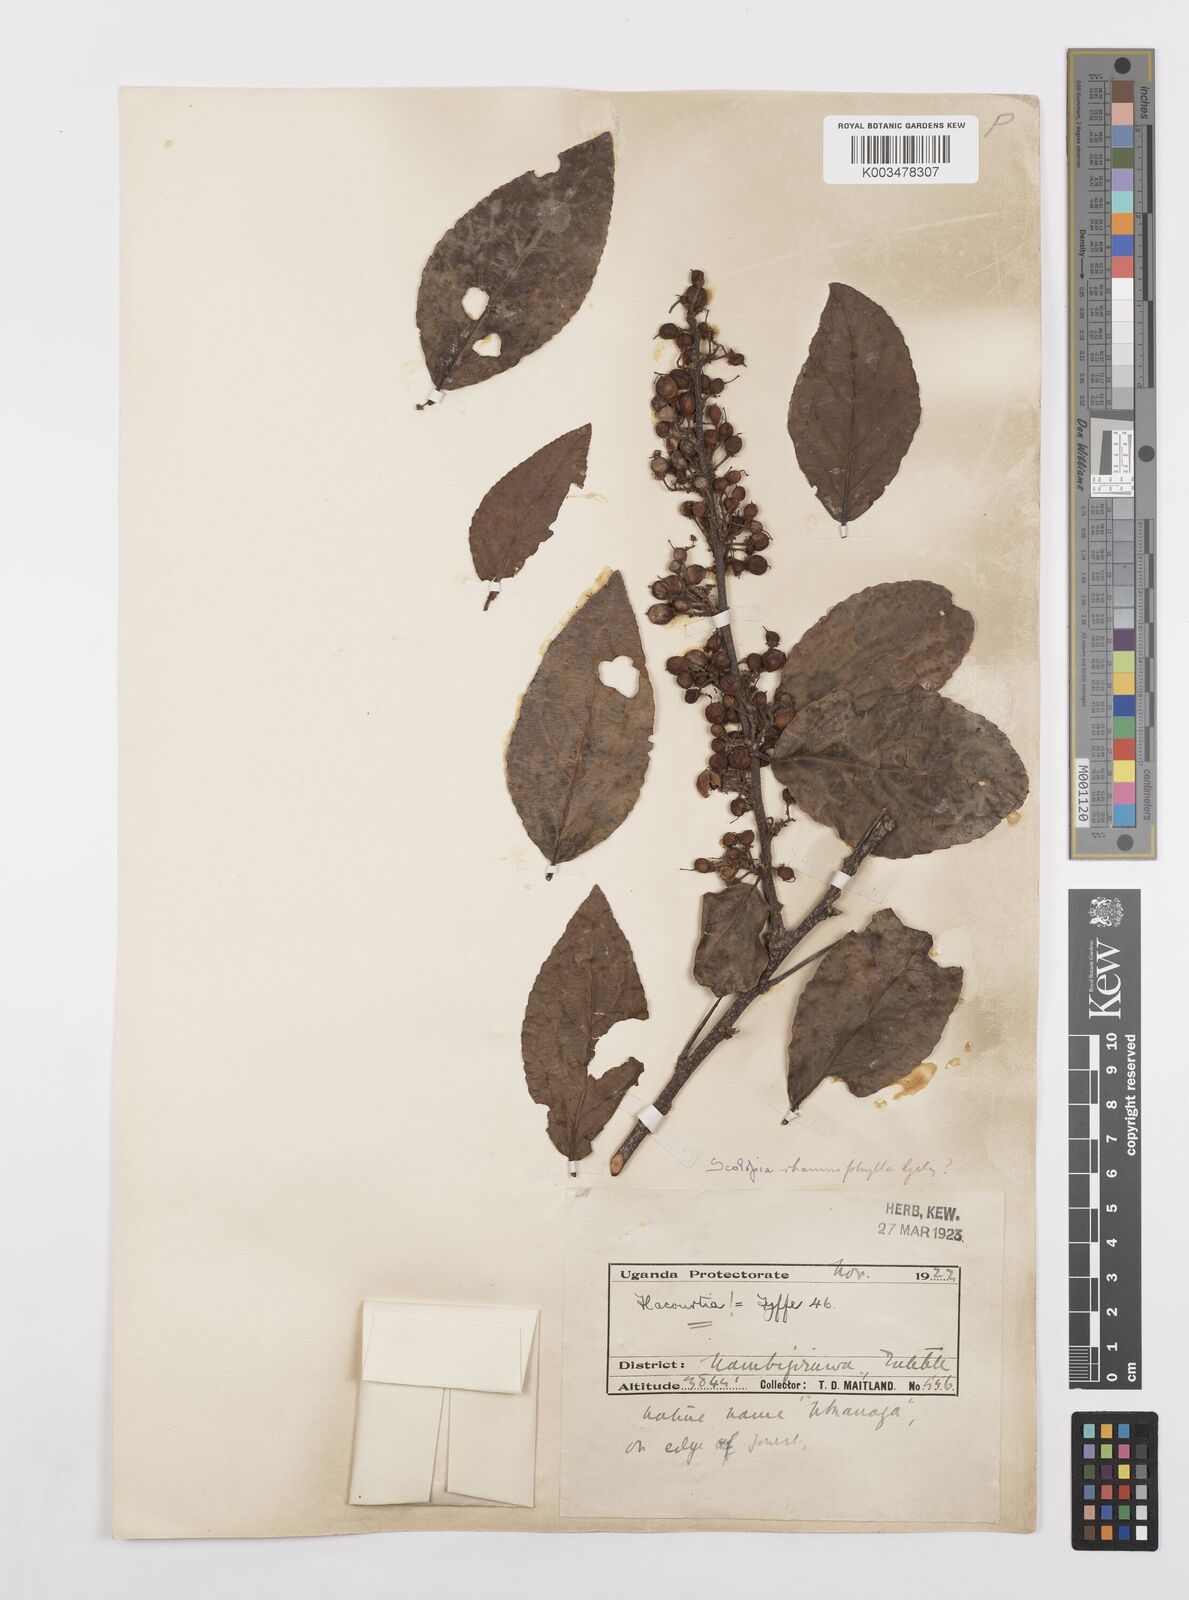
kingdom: Plantae
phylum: Tracheophyta
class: Magnoliopsida
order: Malpighiales
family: Salicaceae
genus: Scolopia
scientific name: Scolopia rhamniphylla
